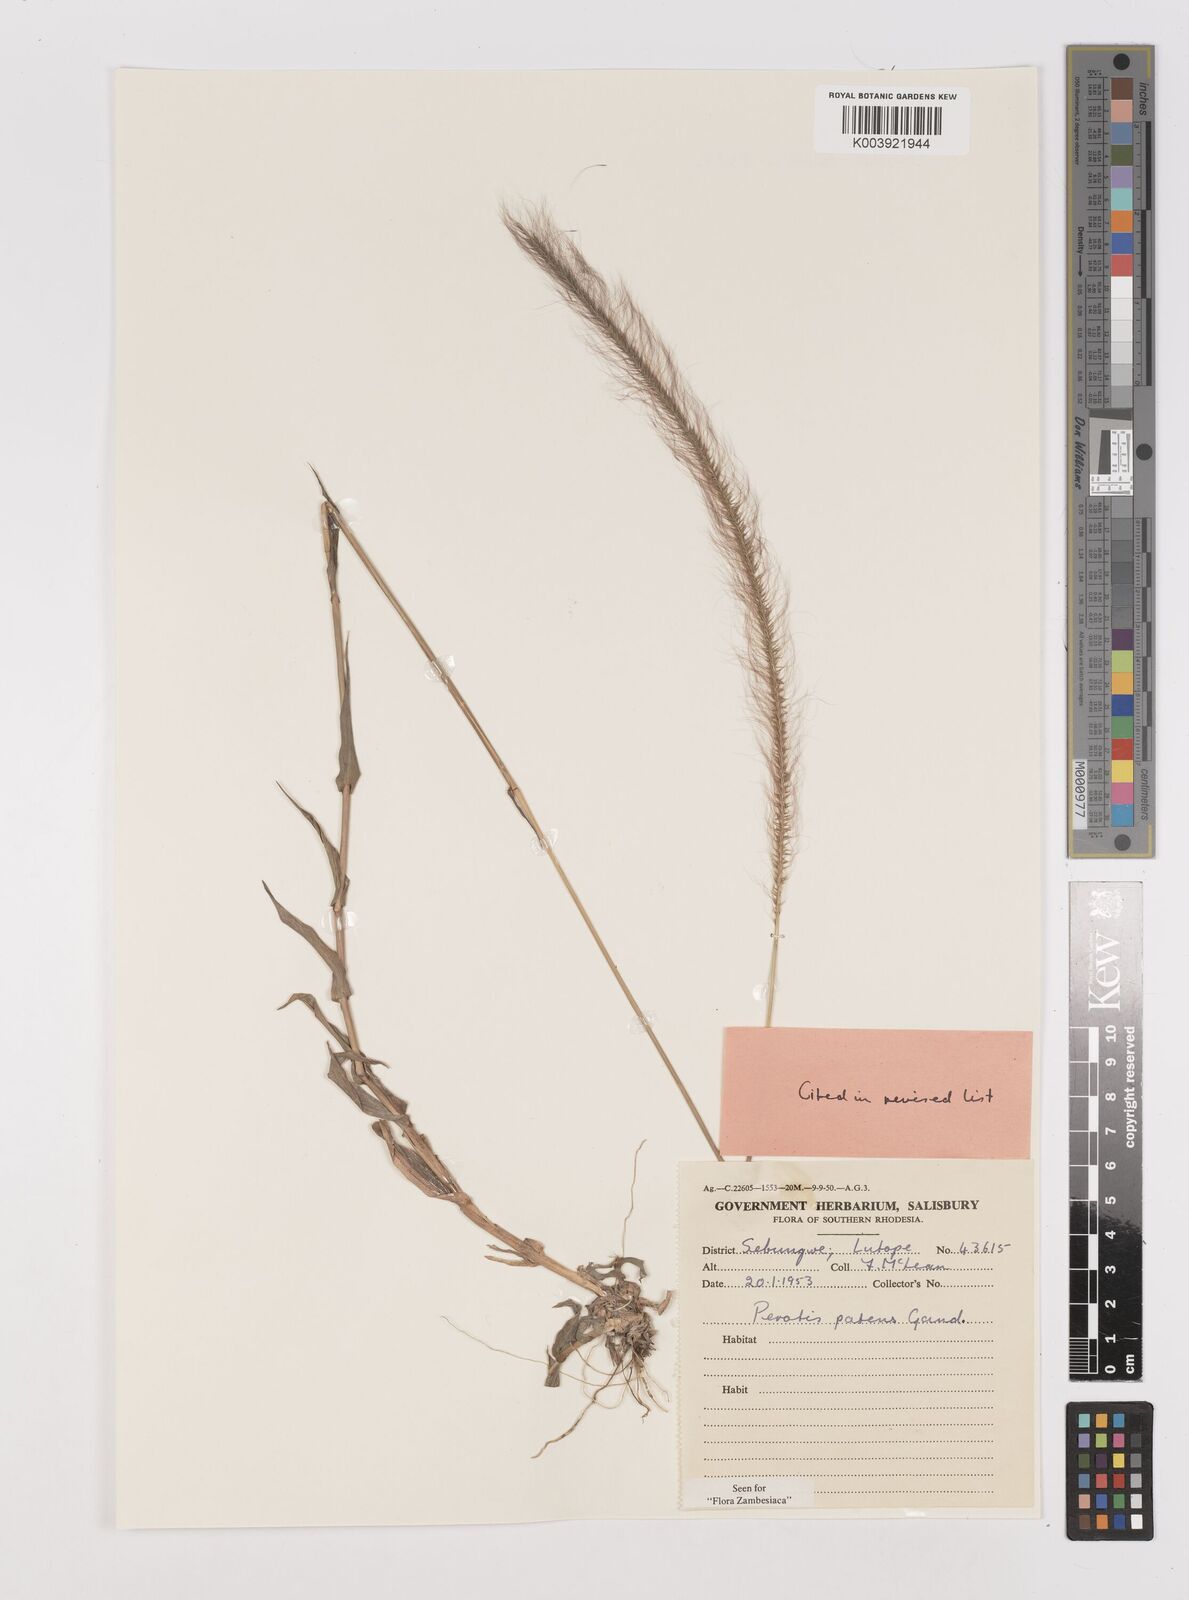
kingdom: Plantae
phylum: Tracheophyta
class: Liliopsida
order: Poales
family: Poaceae
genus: Perotis
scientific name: Perotis patens
